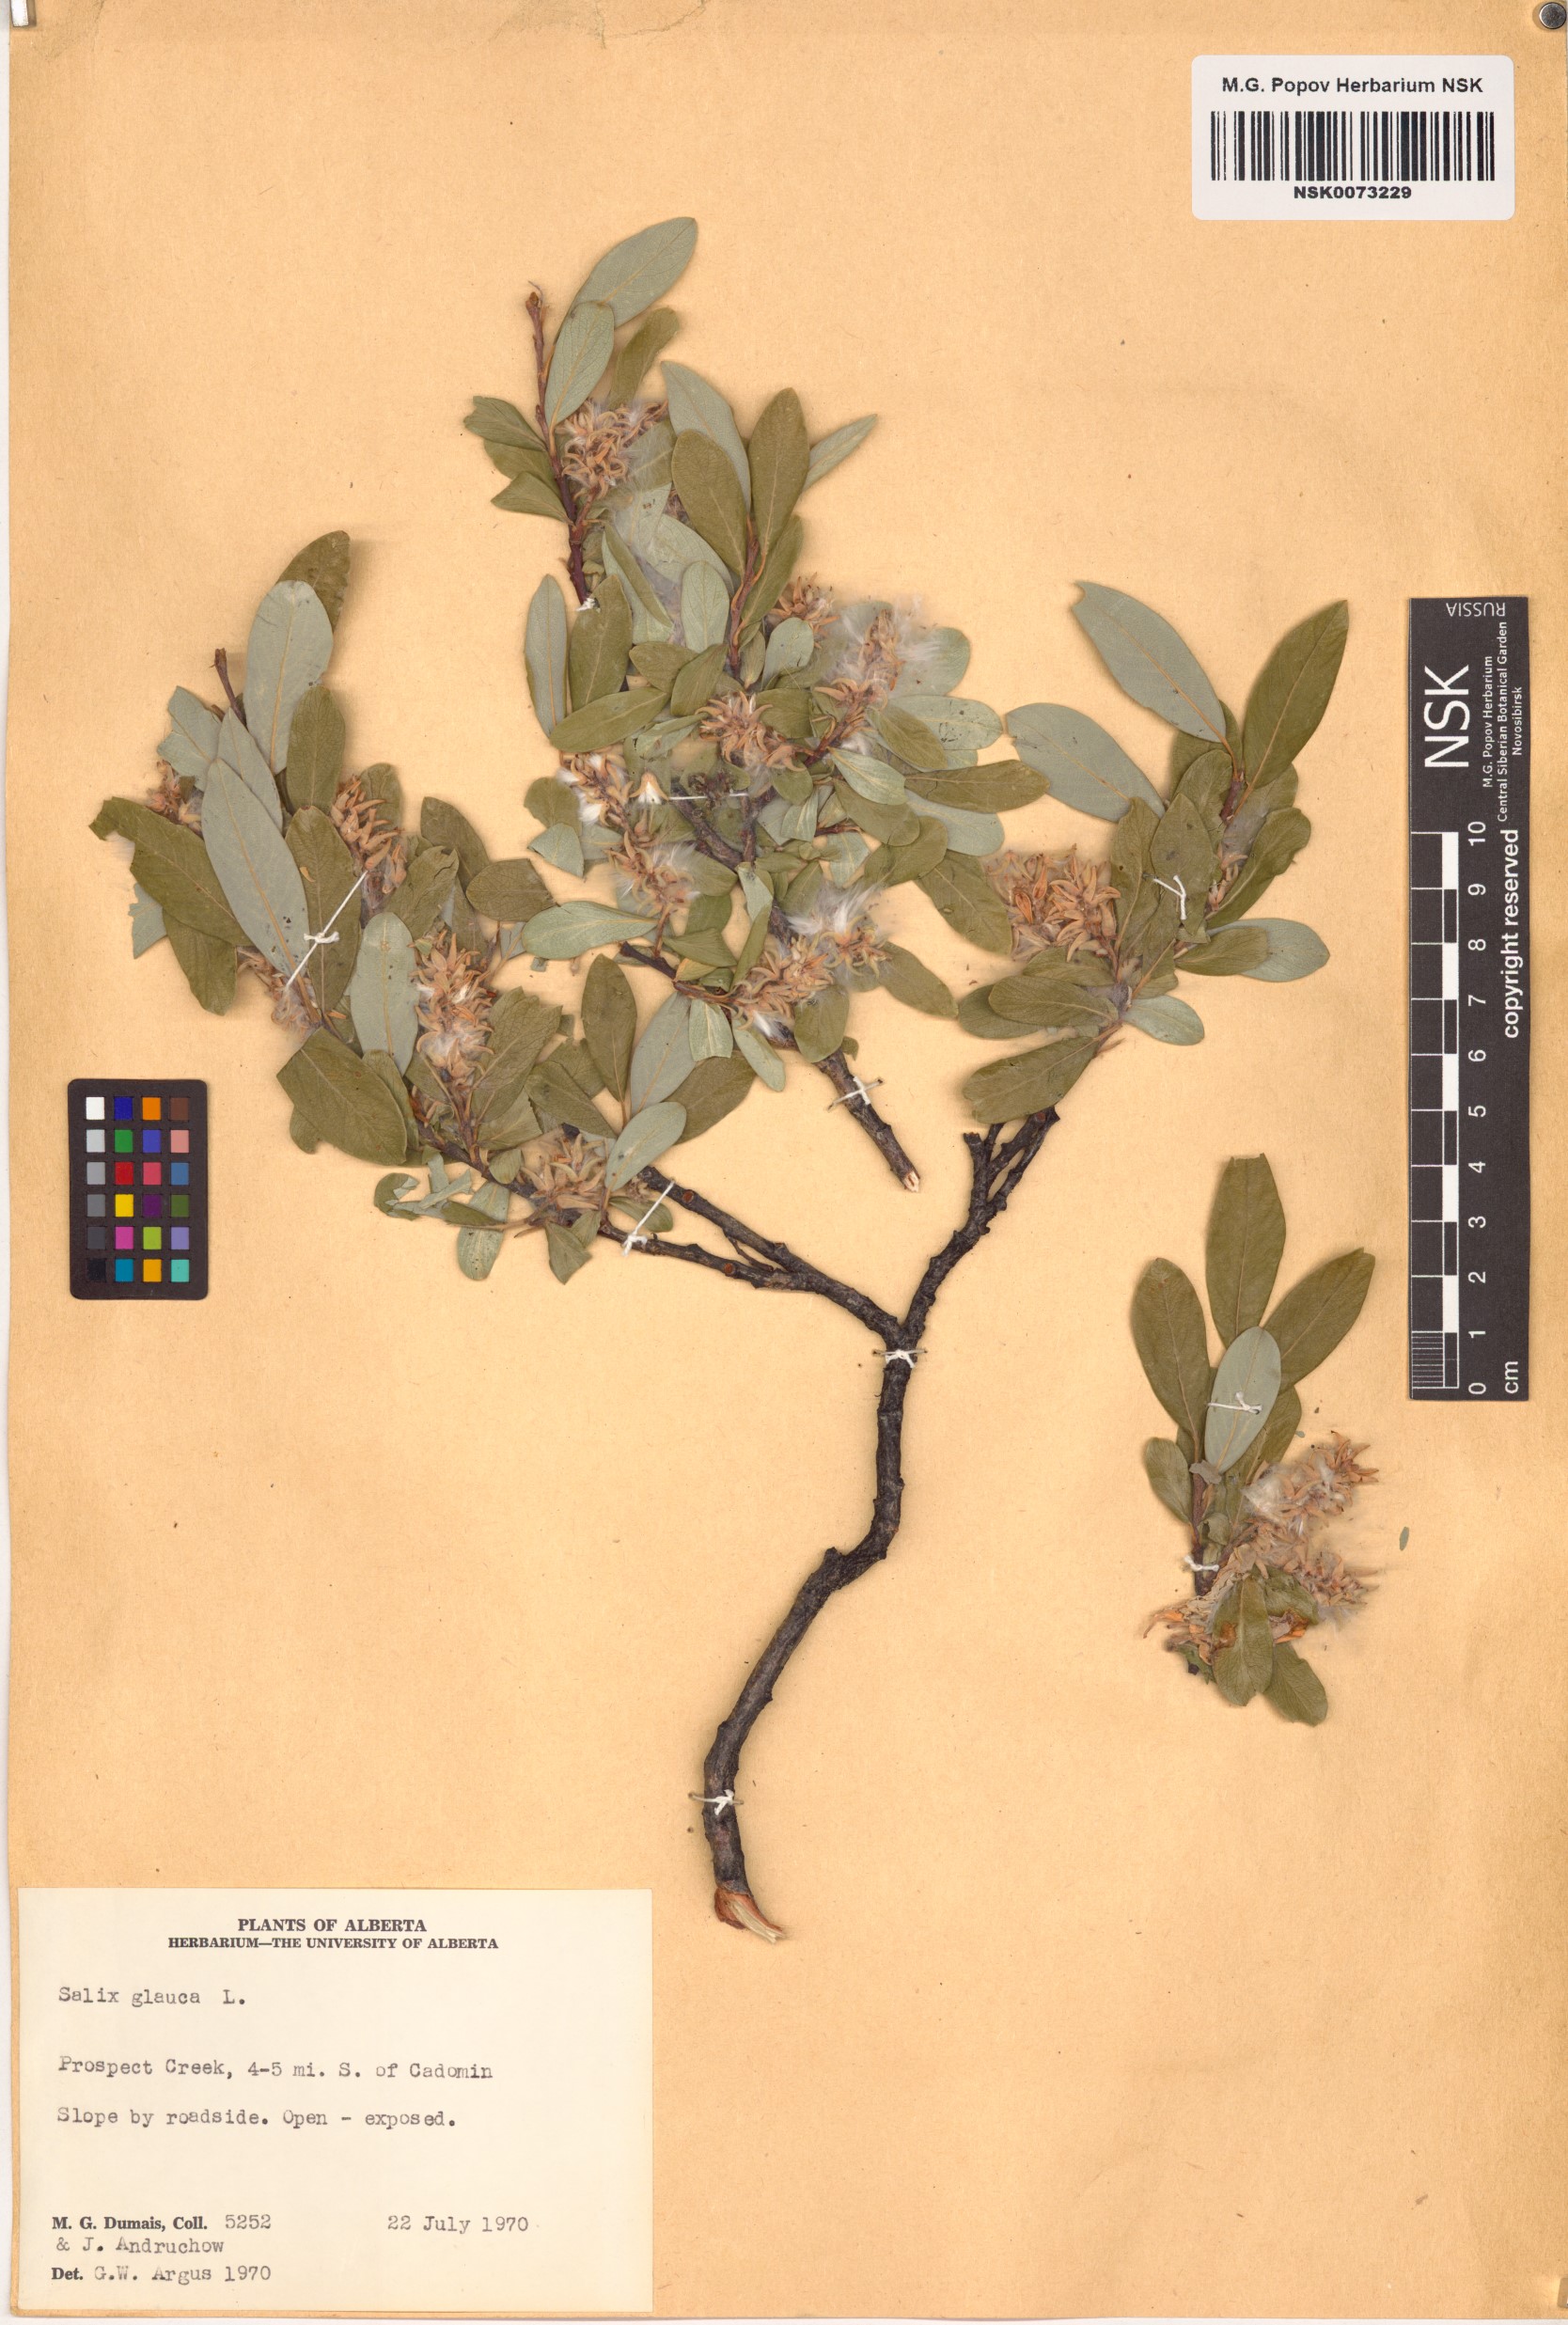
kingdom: Plantae
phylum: Tracheophyta
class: Magnoliopsida
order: Malpighiales
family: Salicaceae
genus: Salix
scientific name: Salix glauca
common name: Glaucous willow
